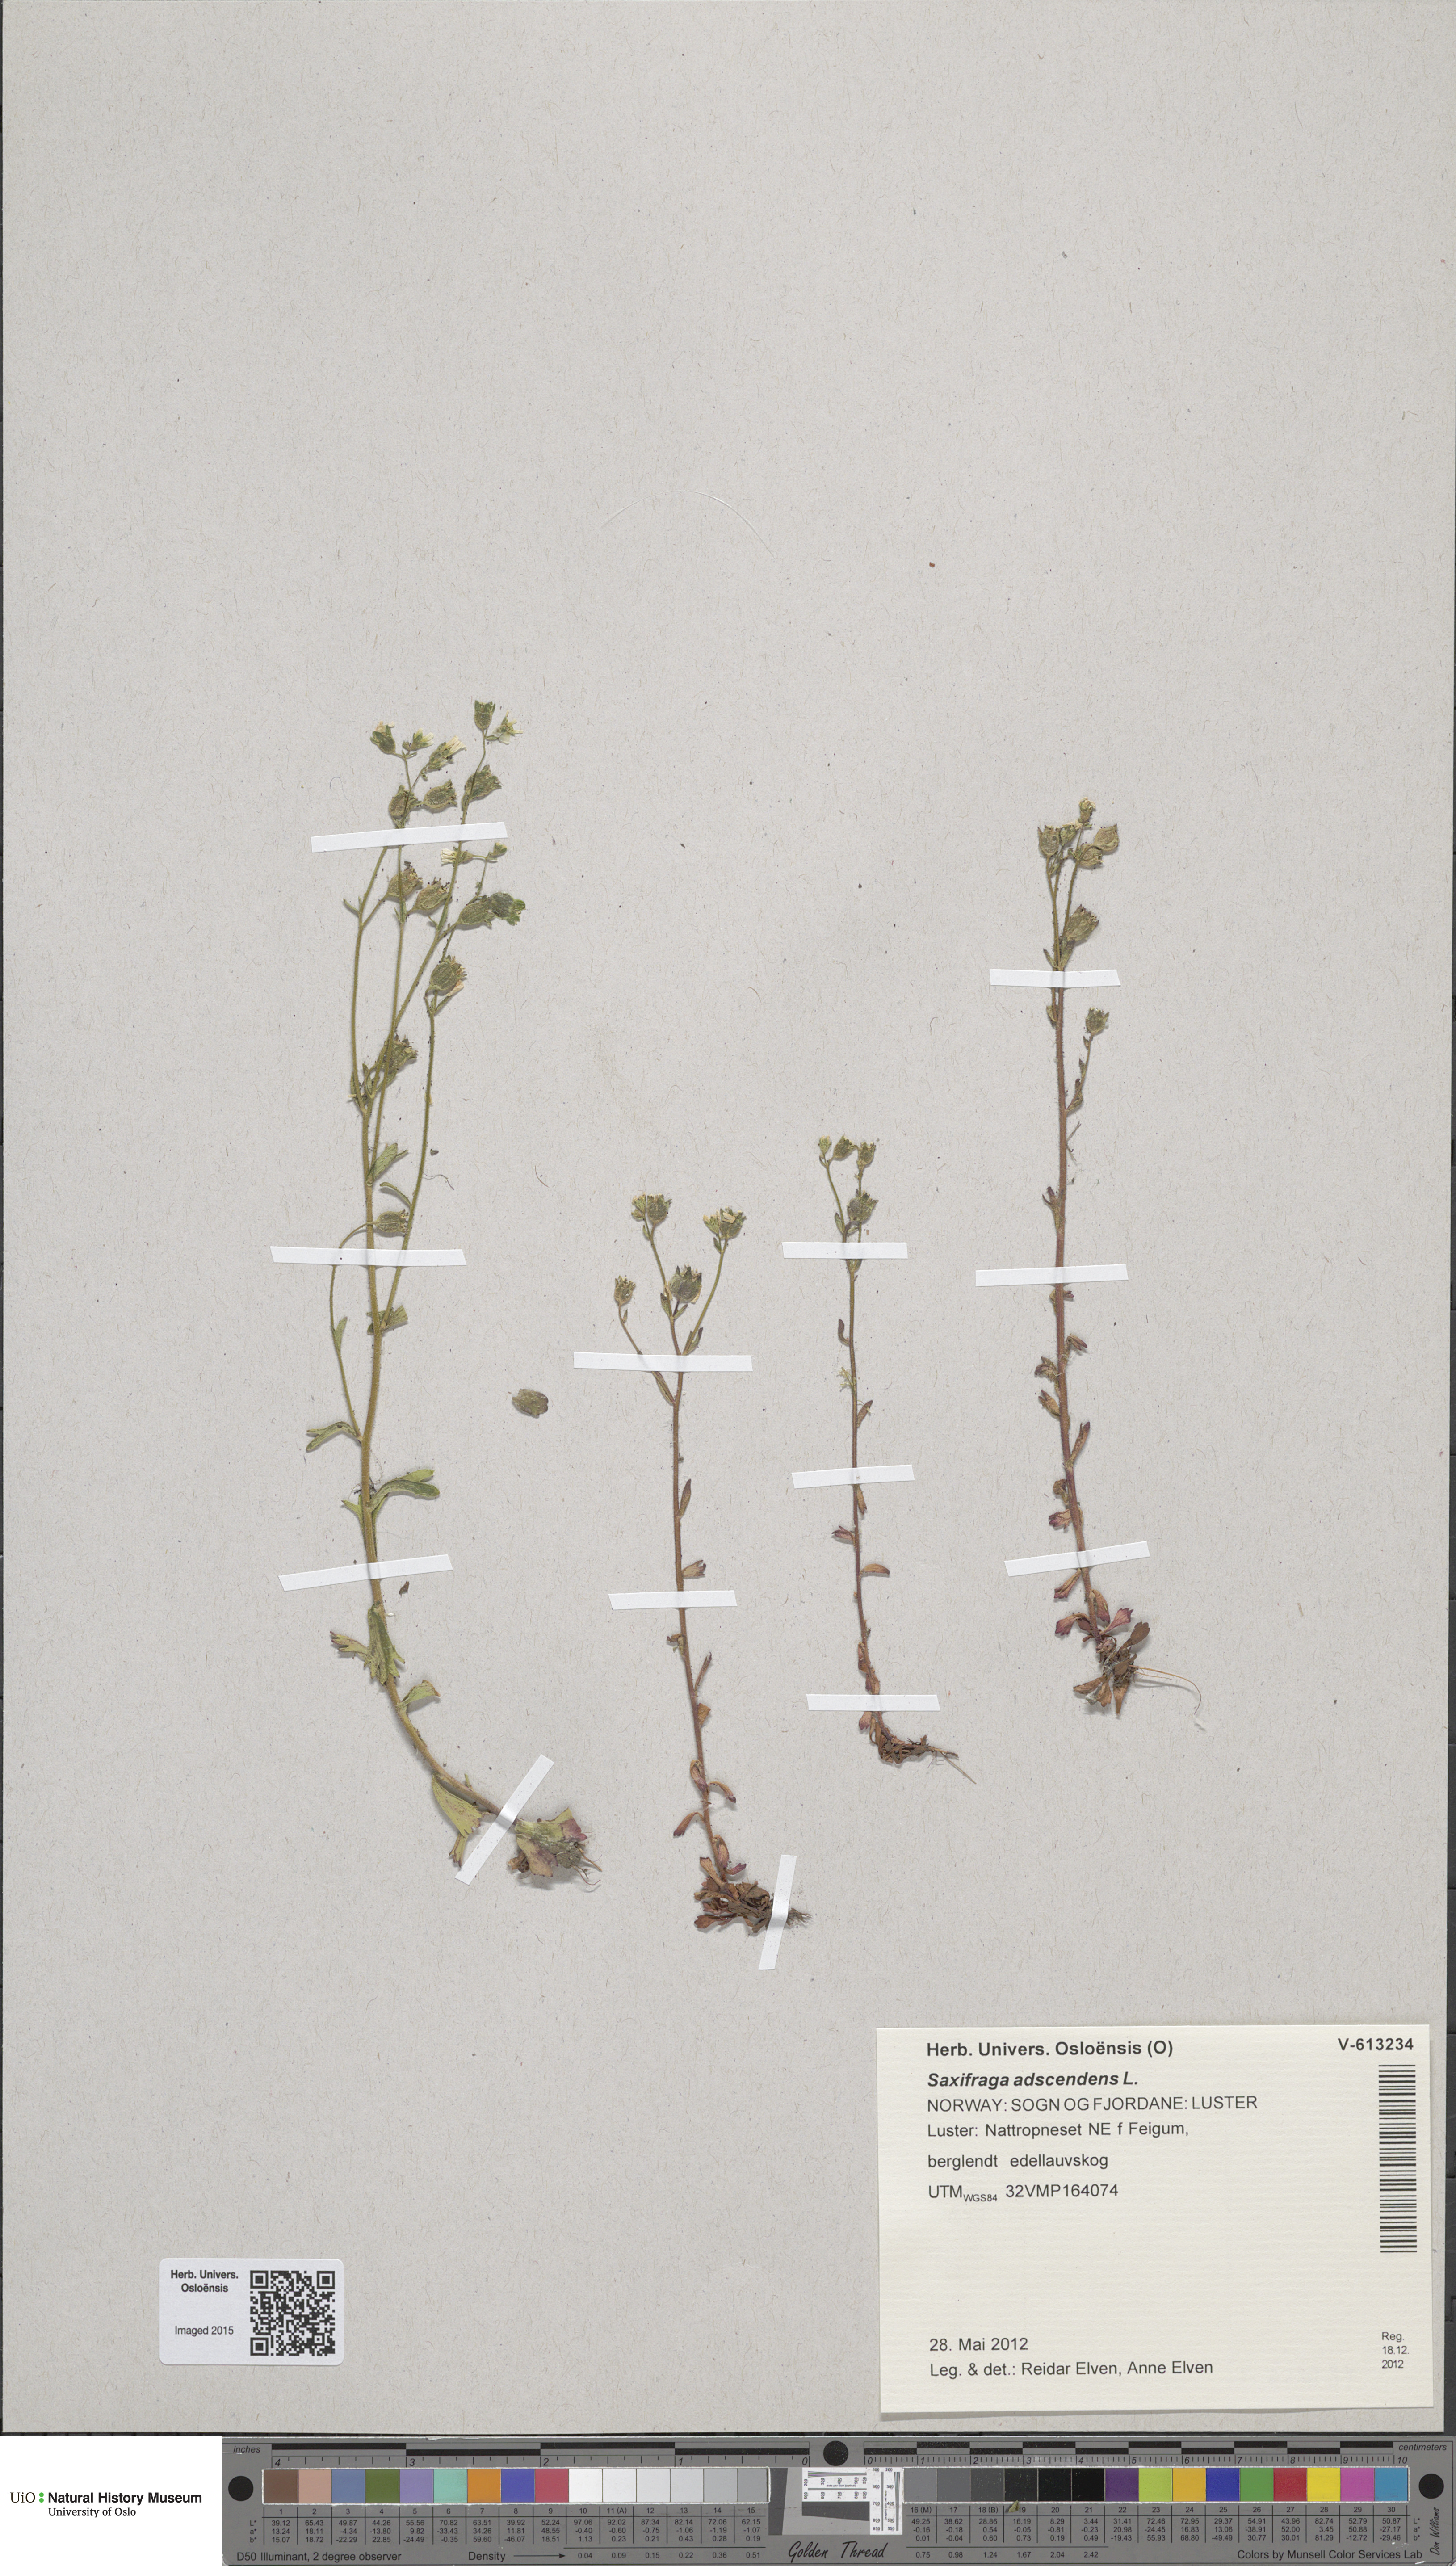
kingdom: Plantae
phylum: Tracheophyta
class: Magnoliopsida
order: Saxifragales
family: Saxifragaceae
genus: Saxifraga
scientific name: Saxifraga adscendens
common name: Ascending saxifrage
